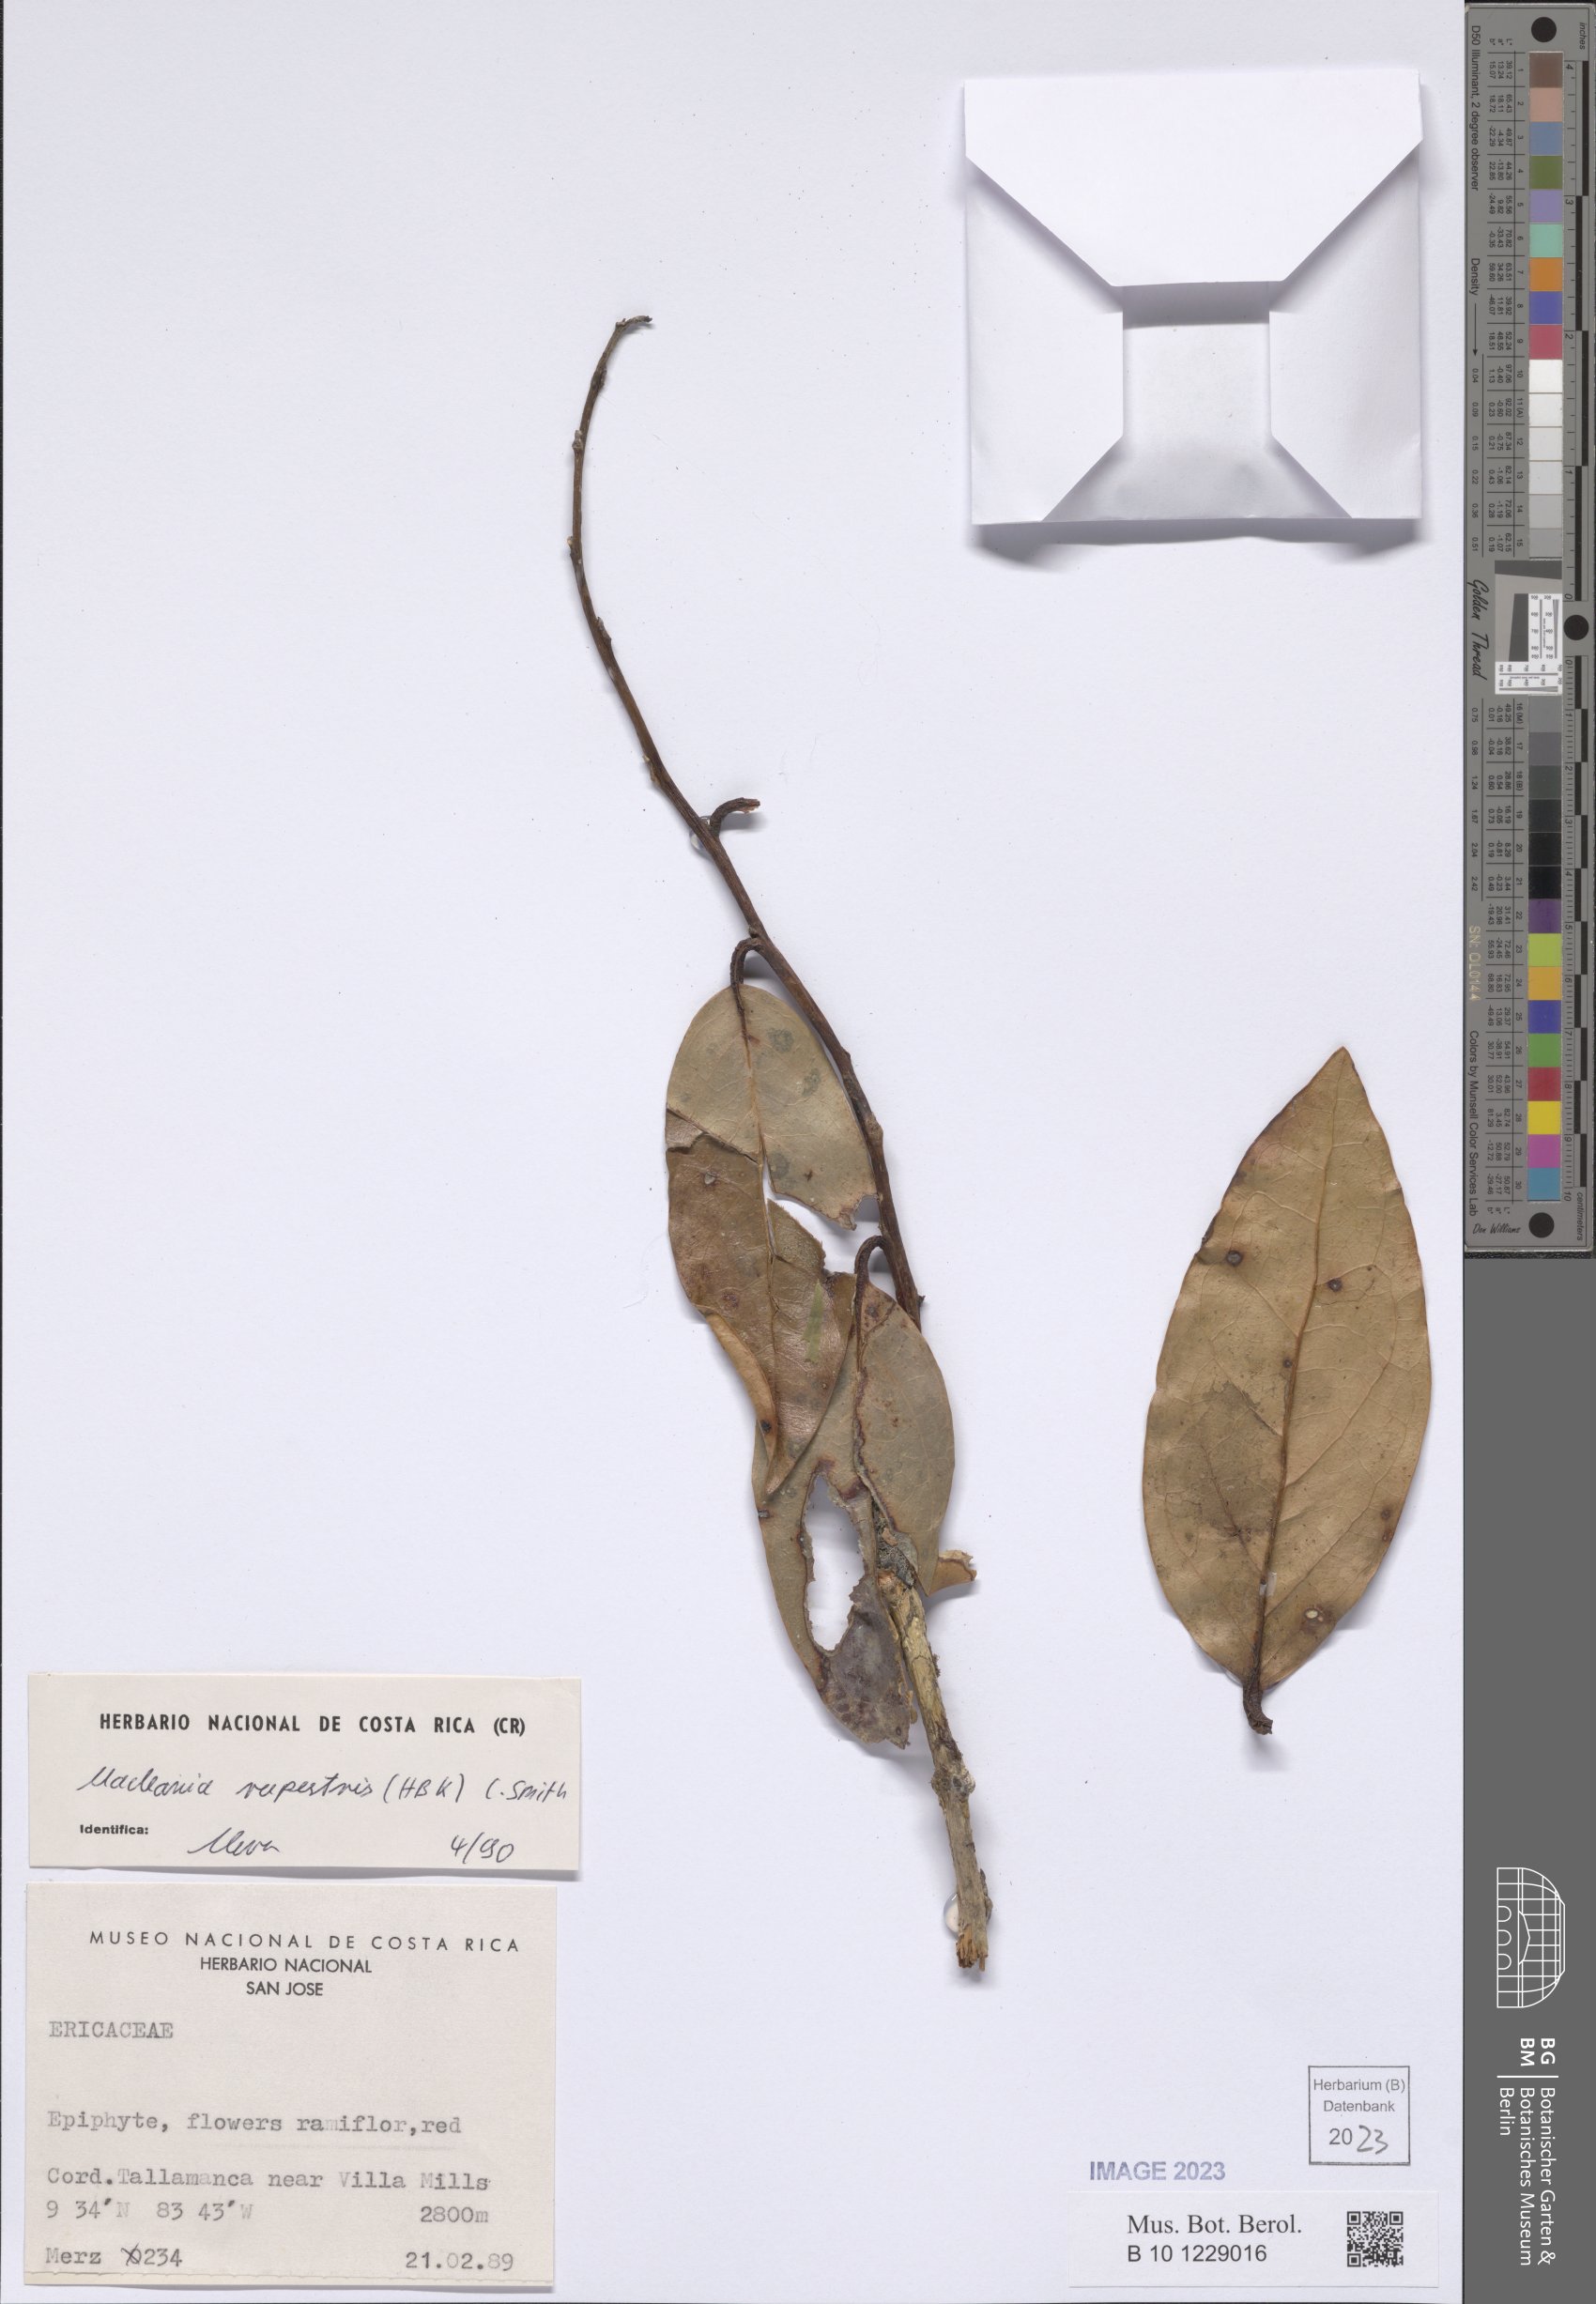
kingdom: Plantae
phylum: Tracheophyta
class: Magnoliopsida
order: Ericales
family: Ericaceae
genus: Macleania
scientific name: Macleania rupestris
